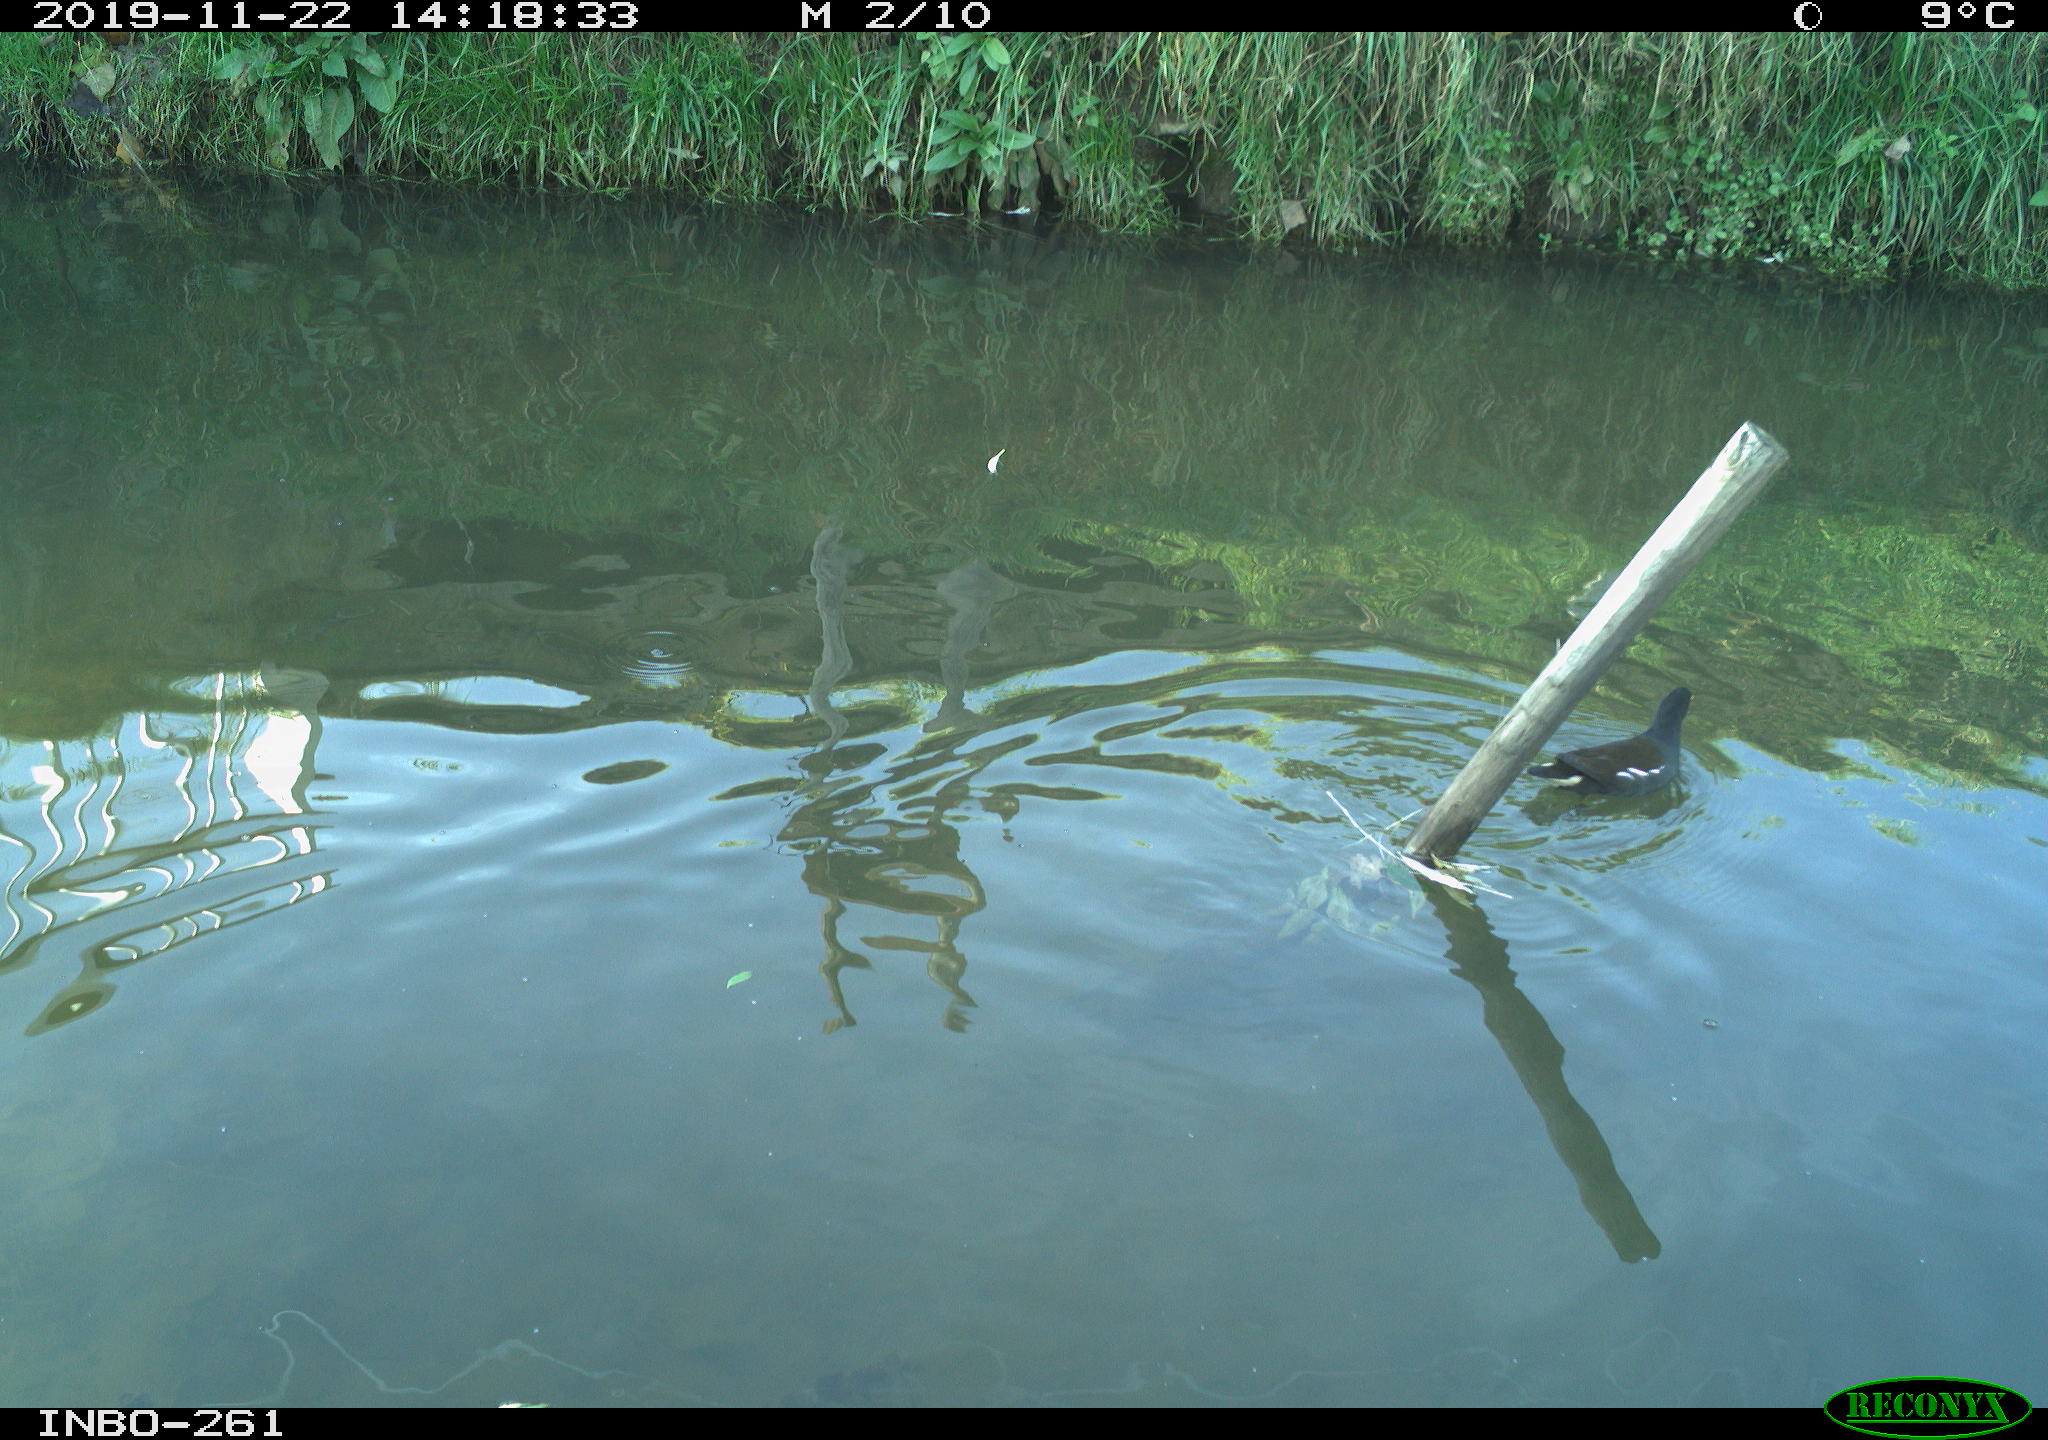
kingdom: Animalia
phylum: Chordata
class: Aves
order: Gruiformes
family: Rallidae
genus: Gallinula
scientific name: Gallinula chloropus
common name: Common moorhen
